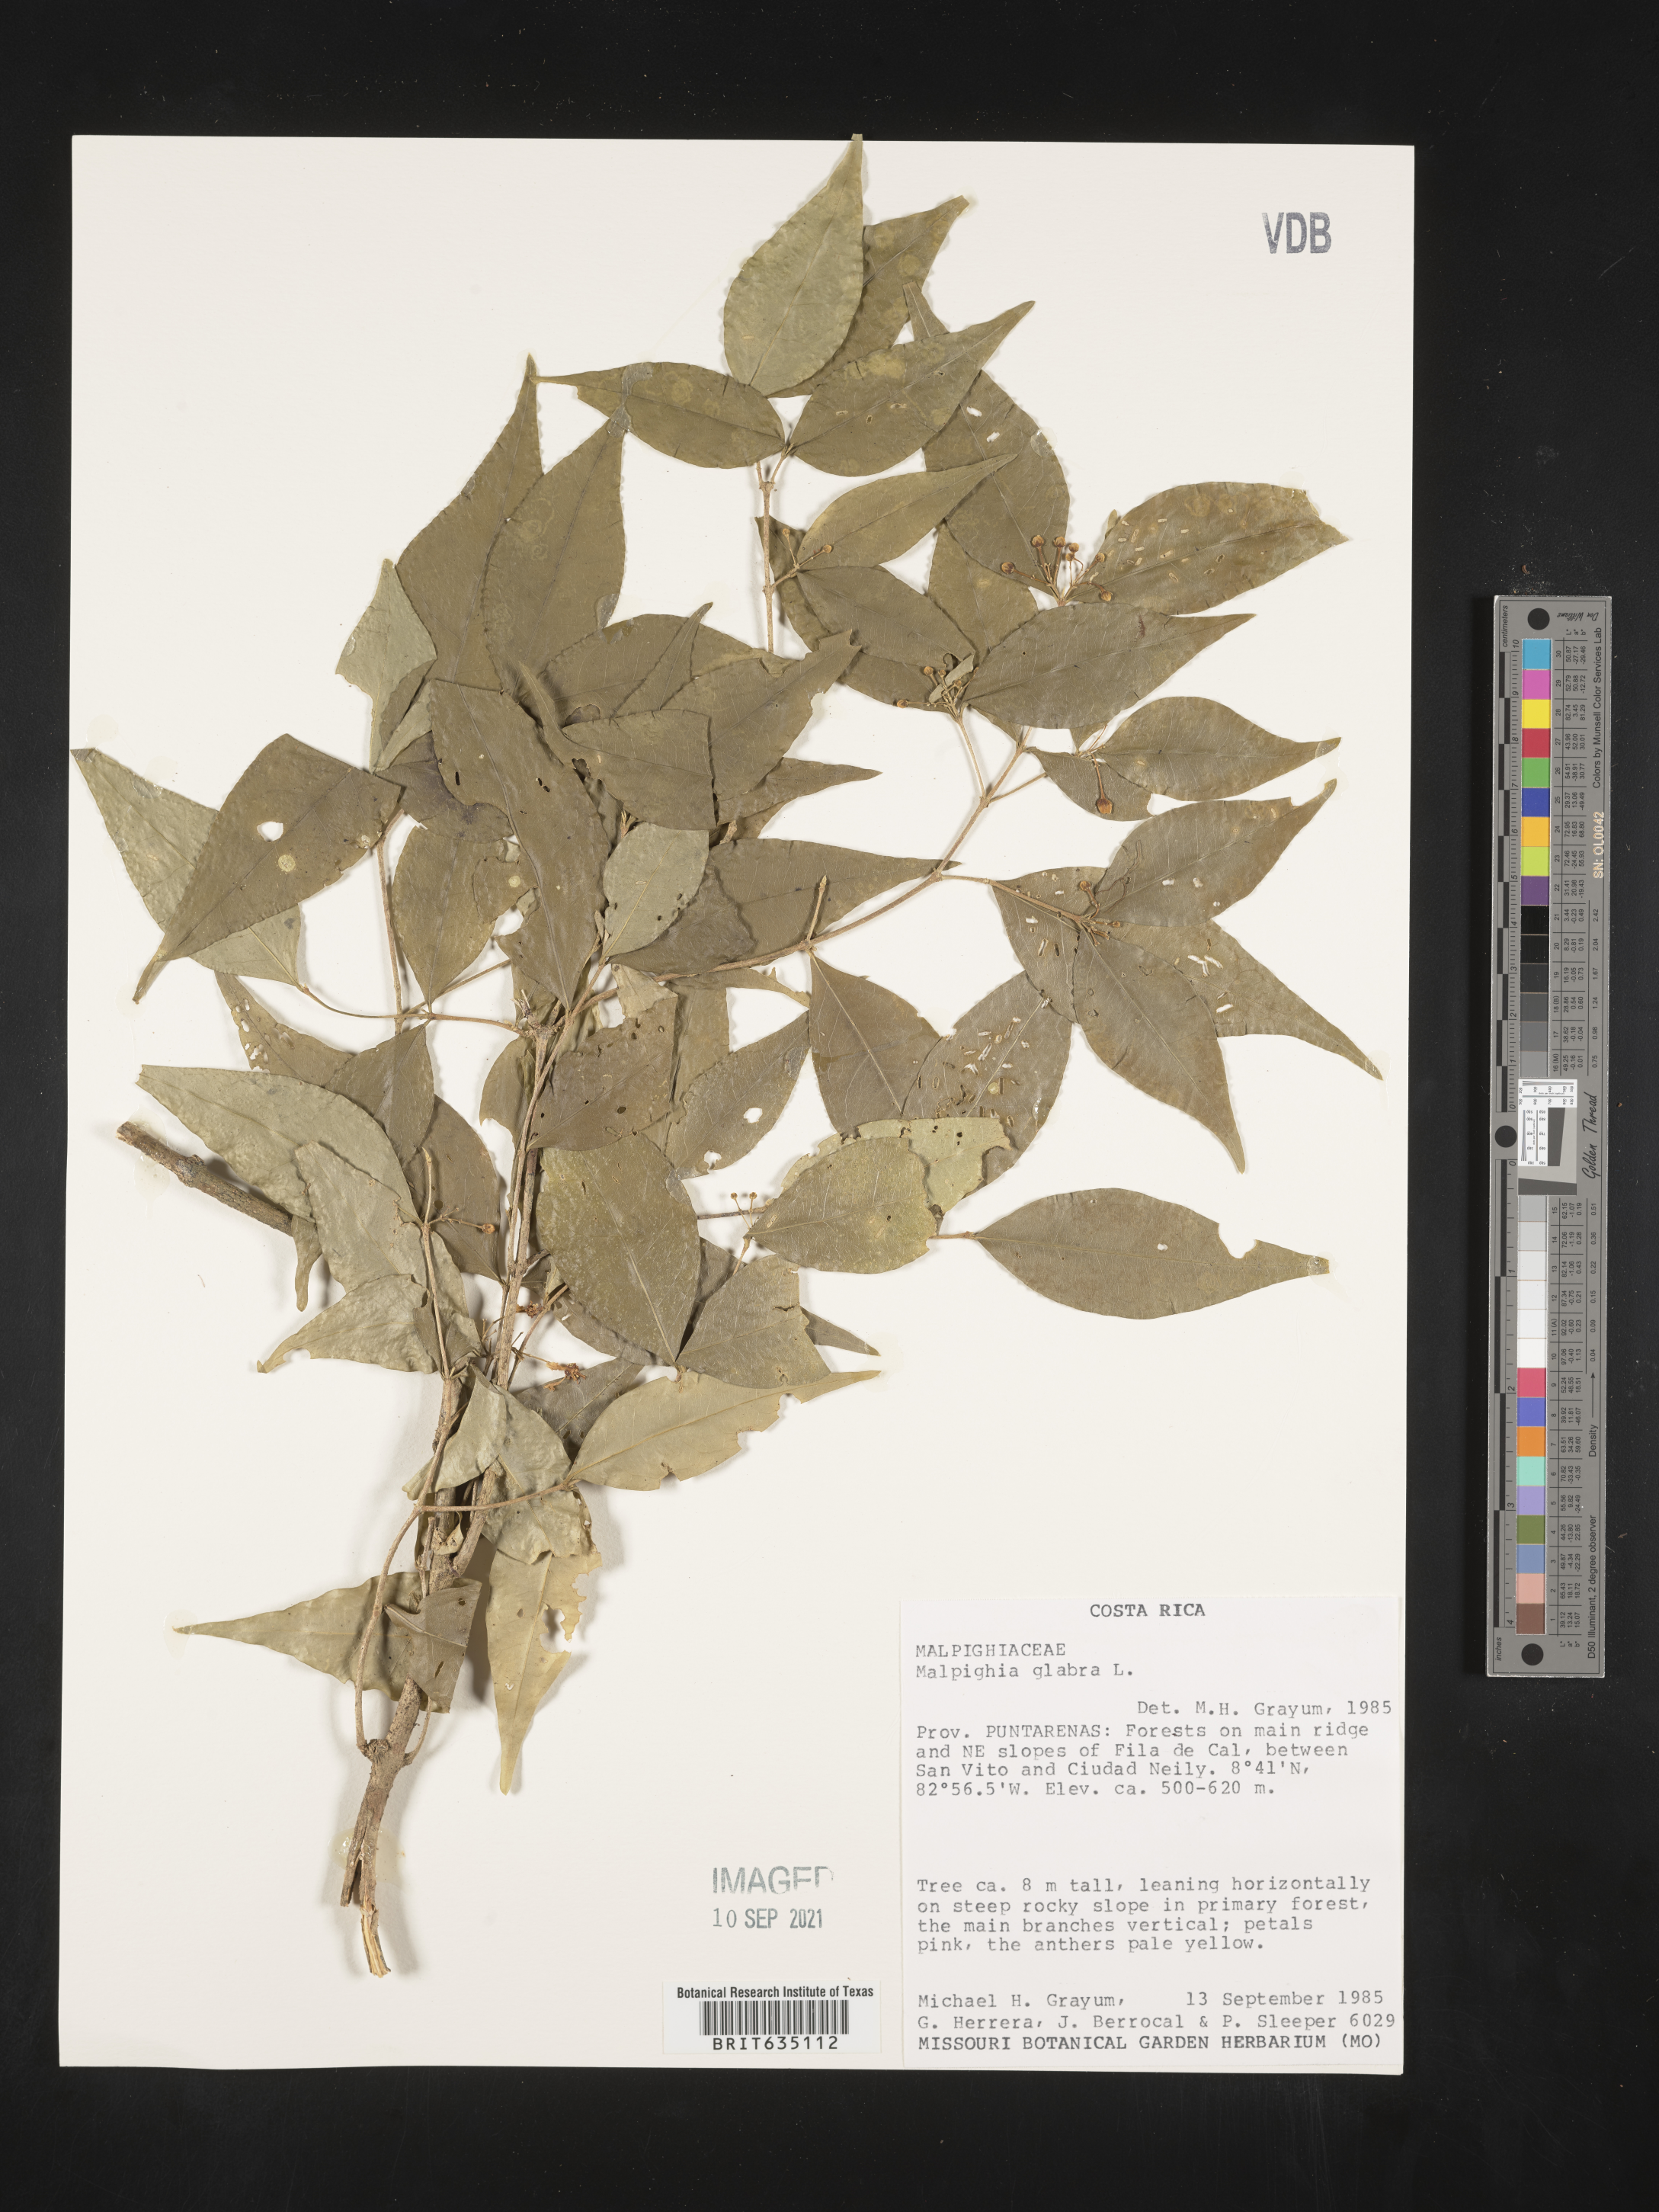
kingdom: Plantae
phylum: Tracheophyta
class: Magnoliopsida
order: Malpighiales
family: Malpighiaceae
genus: Malpighia
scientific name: Malpighia
